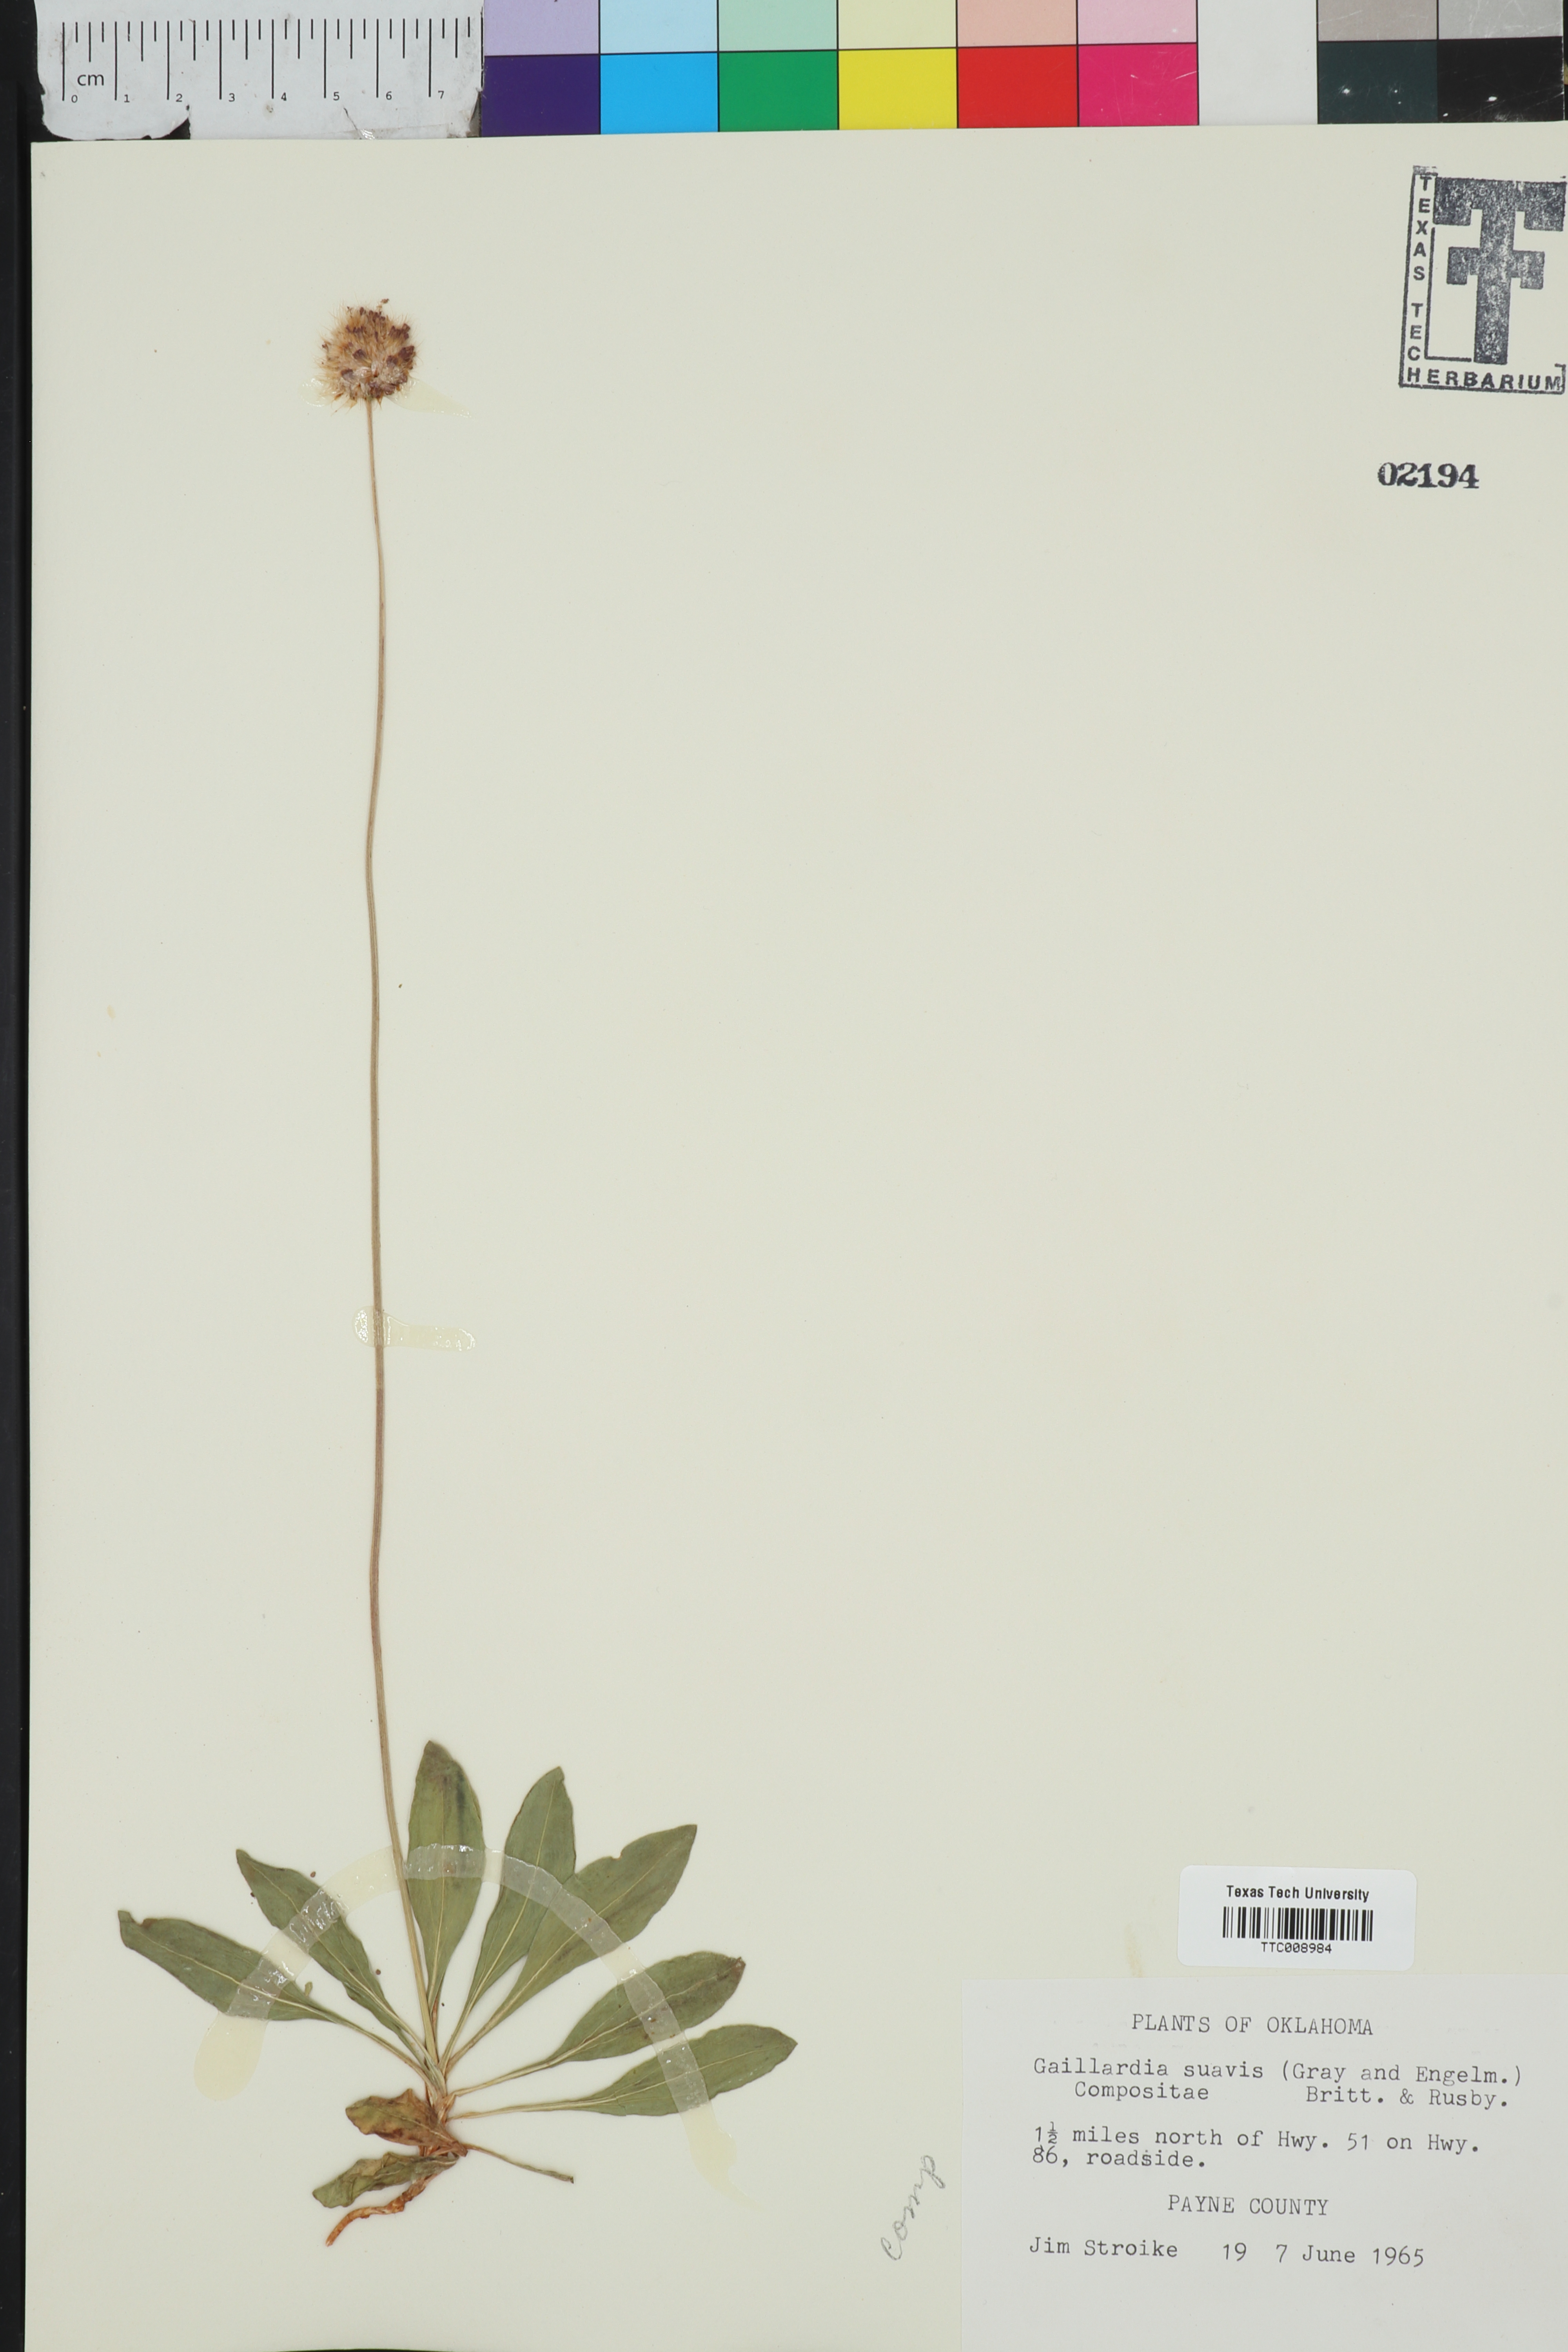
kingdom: Plantae
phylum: Tracheophyta
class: Magnoliopsida
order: Asterales
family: Asteraceae
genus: Gaillardia
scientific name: Gaillardia suavis
